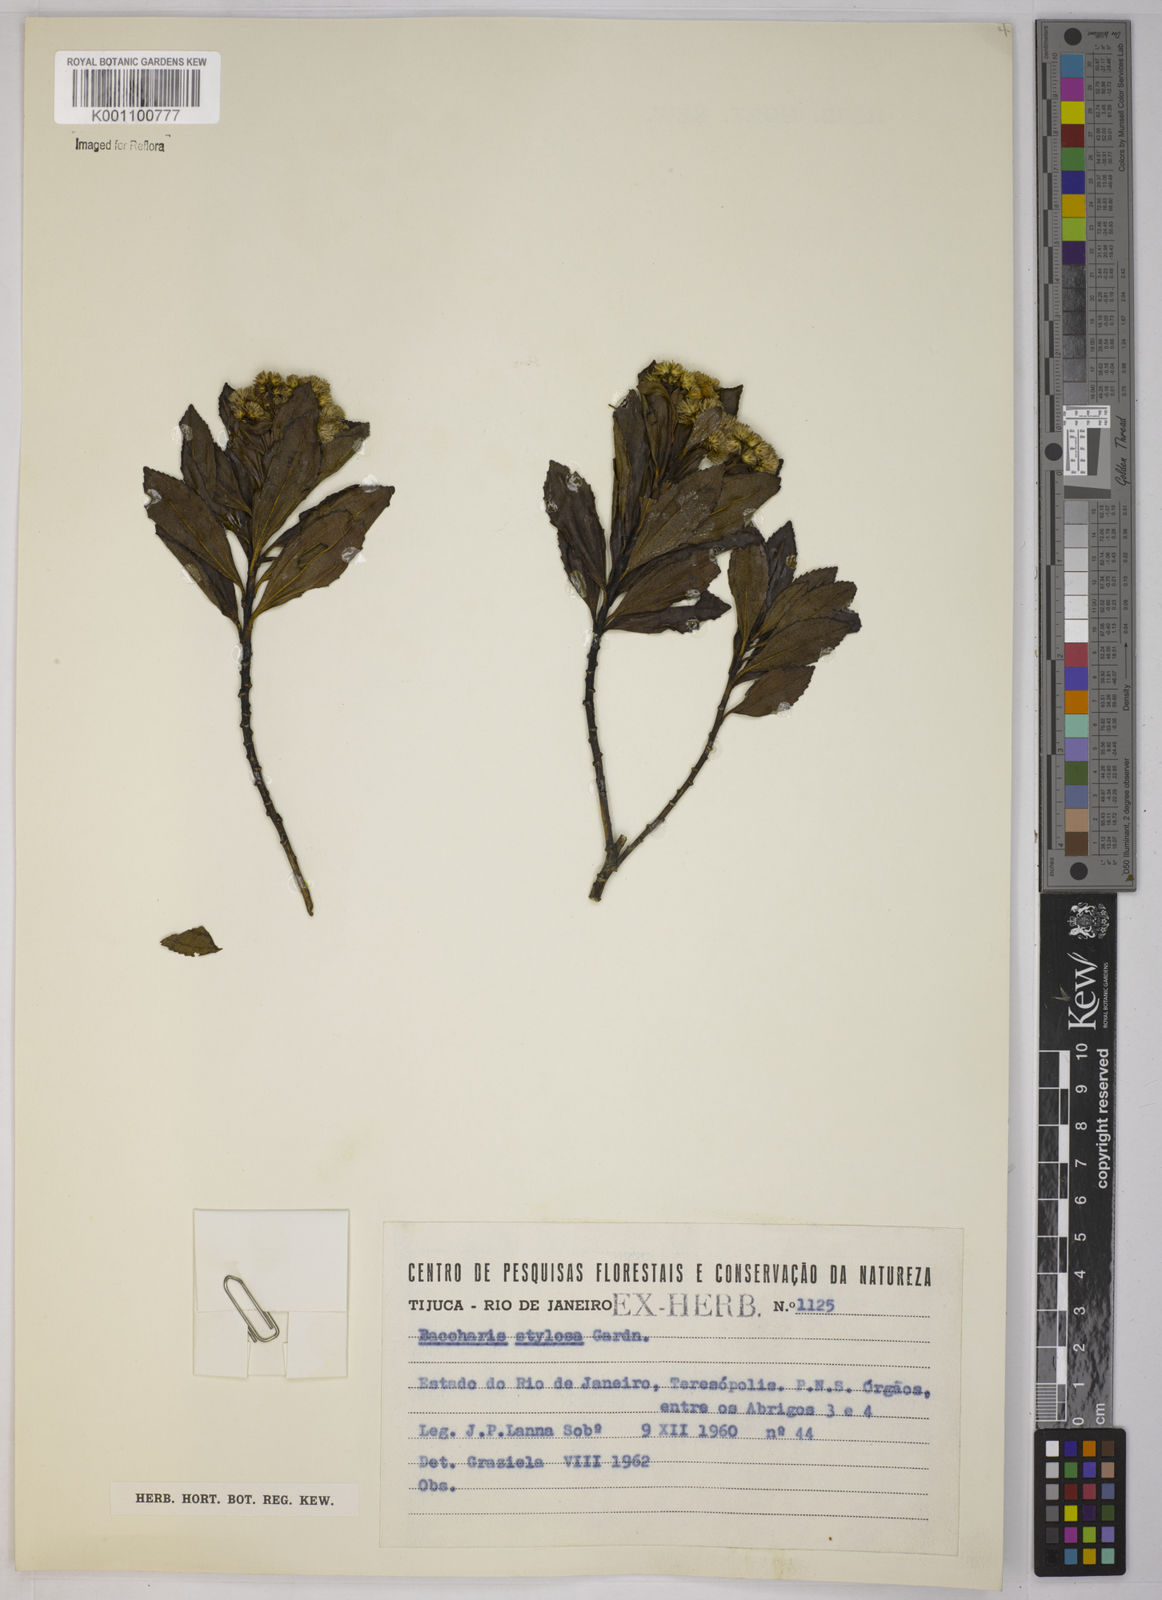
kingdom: Plantae
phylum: Tracheophyta
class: Magnoliopsida
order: Asterales
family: Asteraceae
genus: Baccharis
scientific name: Baccharis stylosa
